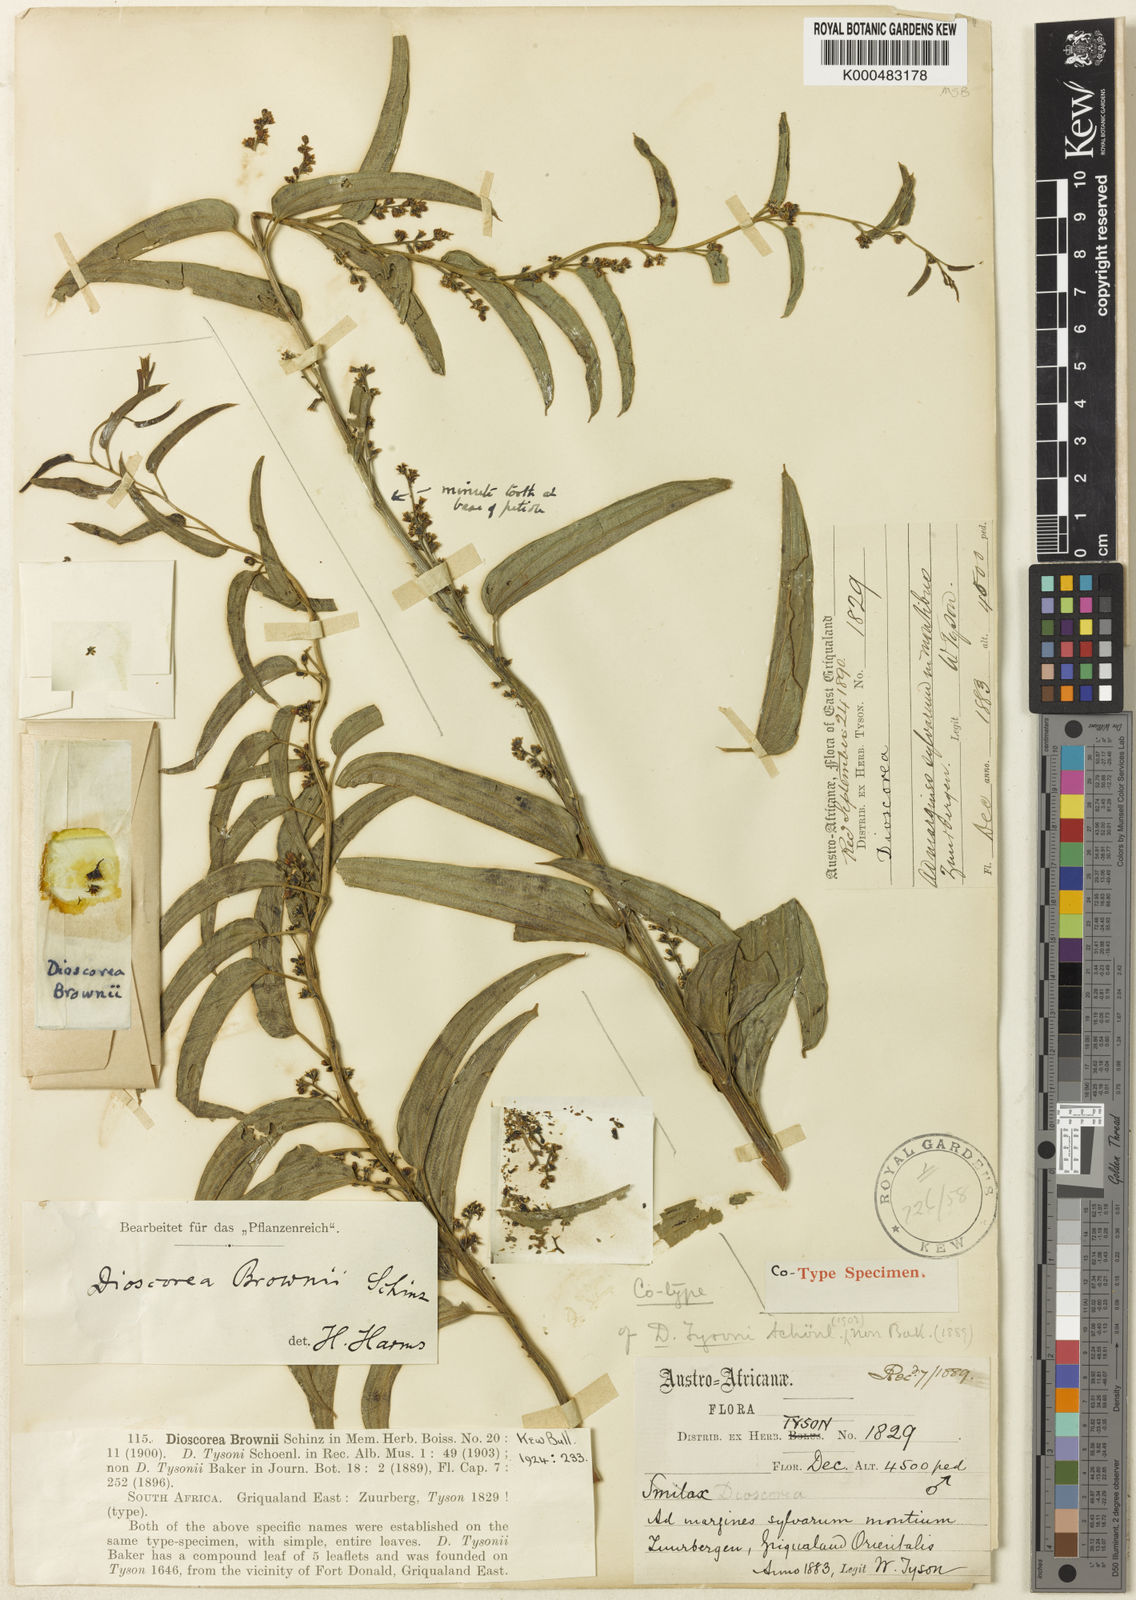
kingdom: Plantae
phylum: Tracheophyta
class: Liliopsida
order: Dioscoreales
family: Dioscoreaceae
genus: Dioscorea
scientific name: Dioscorea brownii
